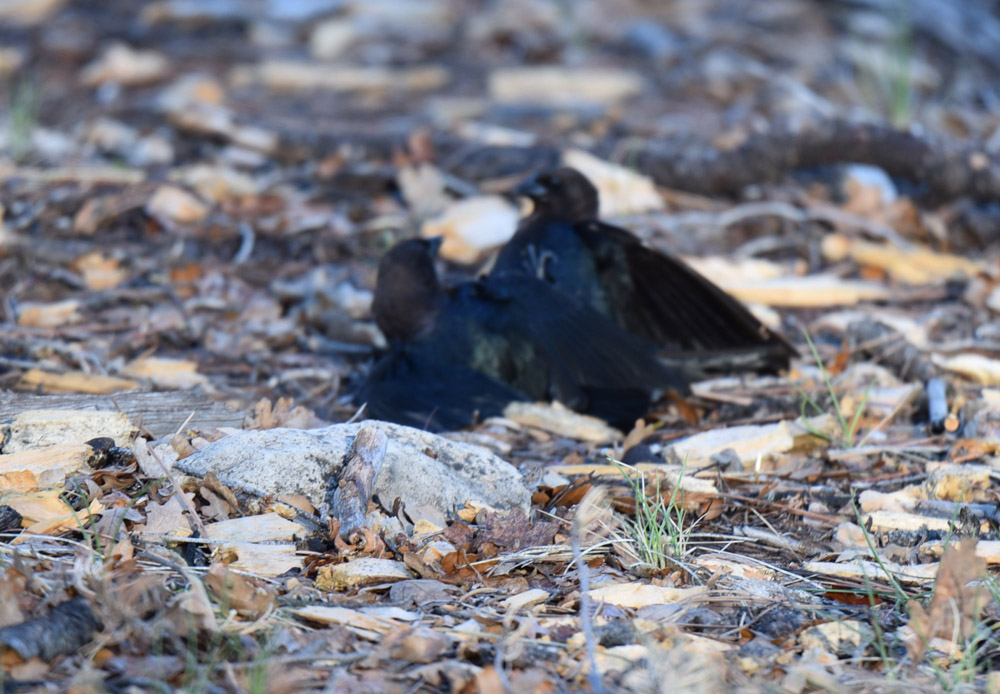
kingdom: Animalia
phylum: Chordata
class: Aves
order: Passeriformes
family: Icteridae
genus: Molothrus
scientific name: Molothrus ater
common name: Brown-headed cowbird
